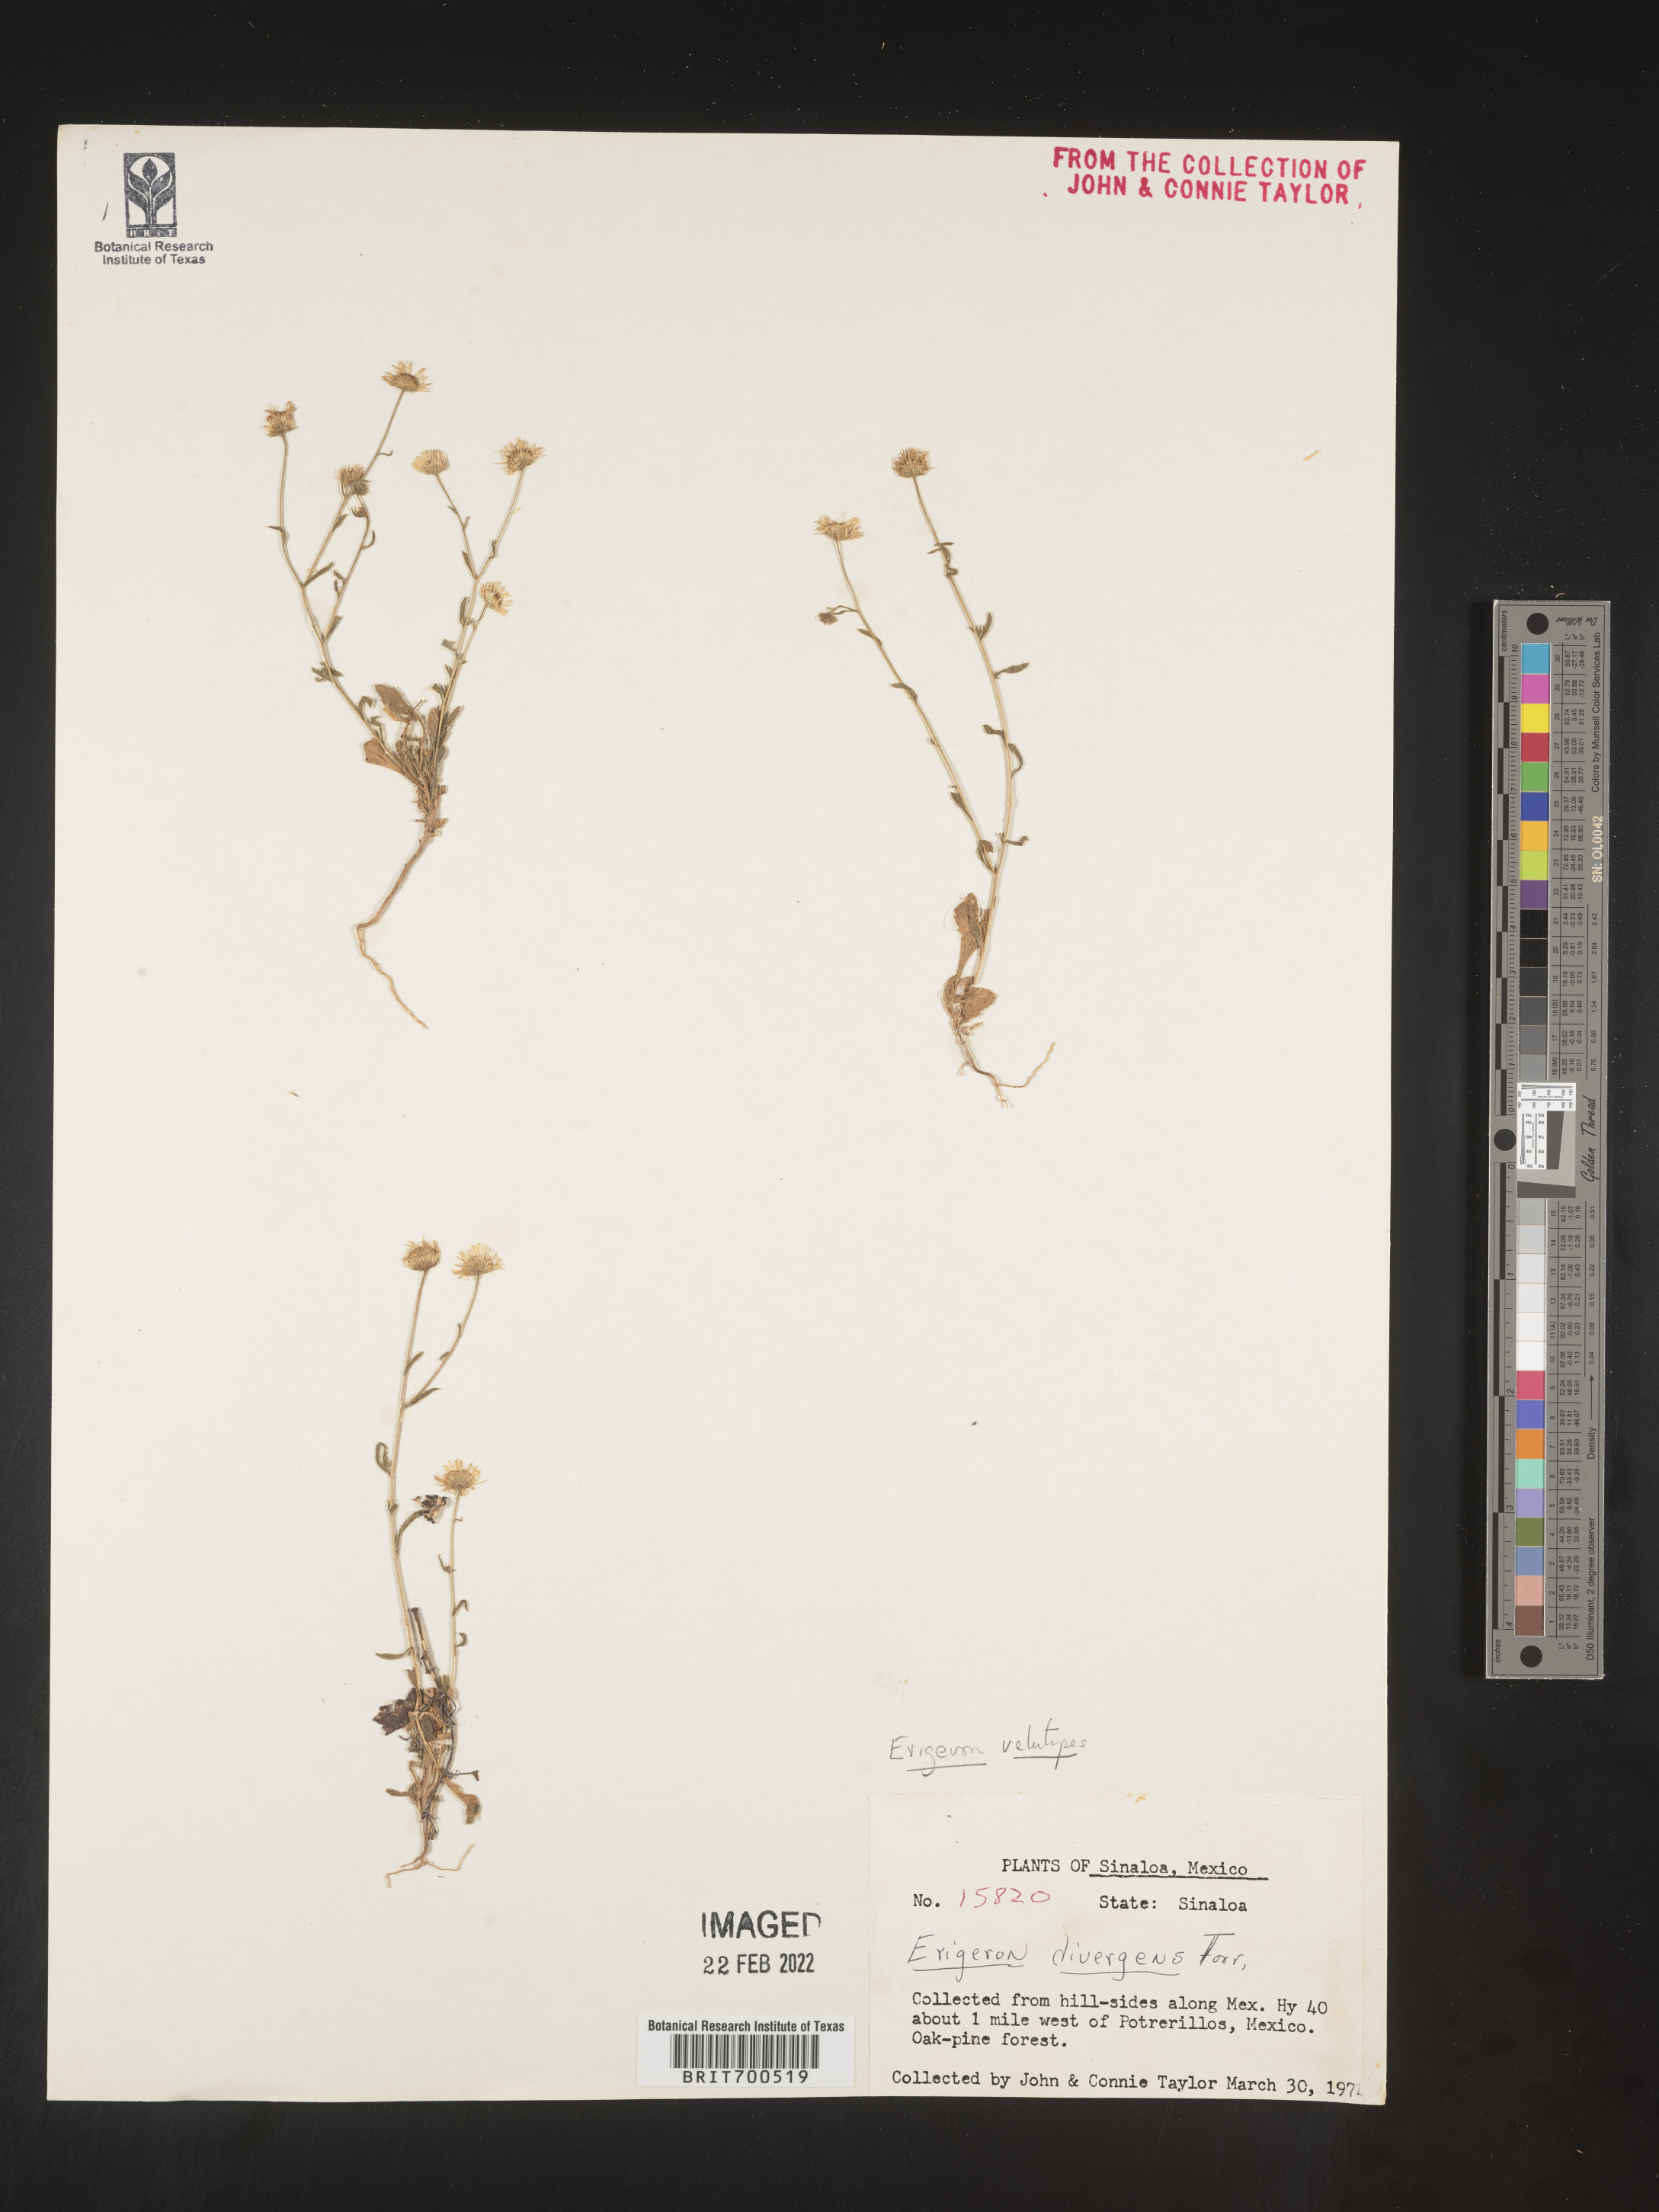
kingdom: Plantae
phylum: Tracheophyta
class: Magnoliopsida
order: Asterales
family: Asteraceae
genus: Erigeron
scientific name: Erigeron versicolor
